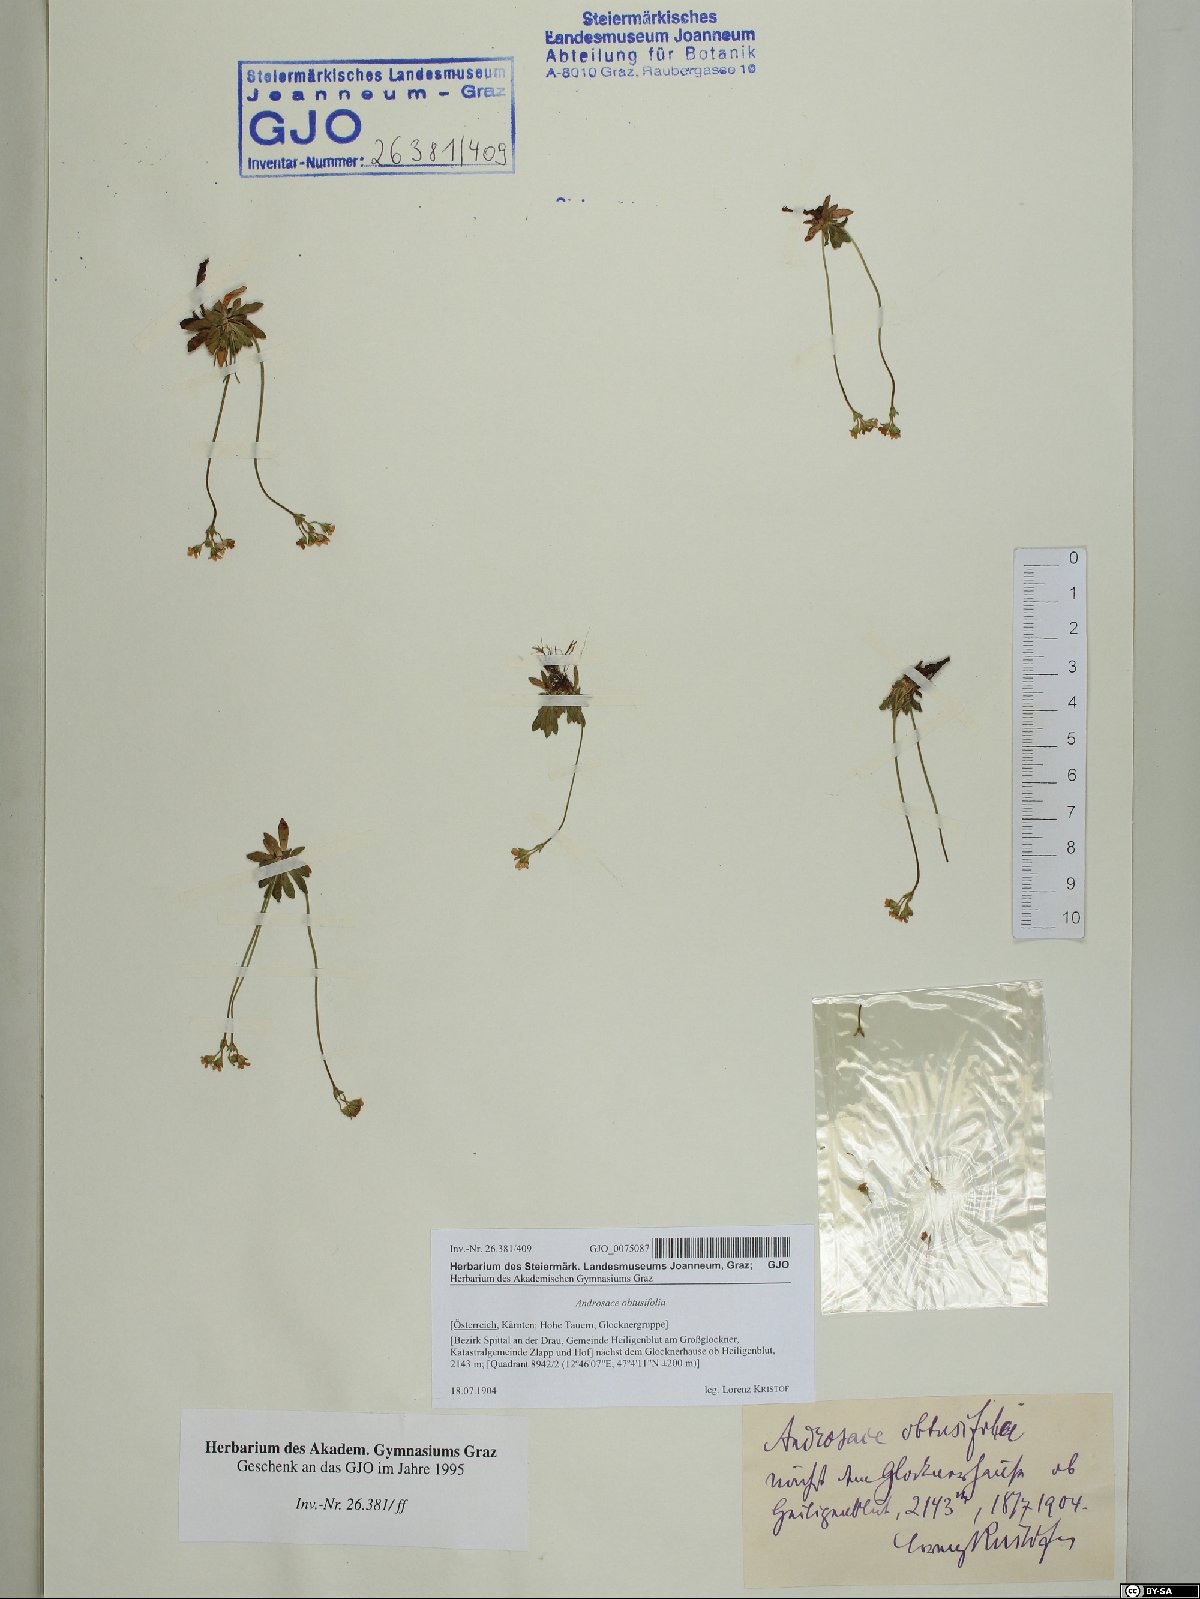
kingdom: Plantae
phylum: Tracheophyta
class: Magnoliopsida
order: Ericales
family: Primulaceae
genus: Androsace
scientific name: Androsace obtusifolia
